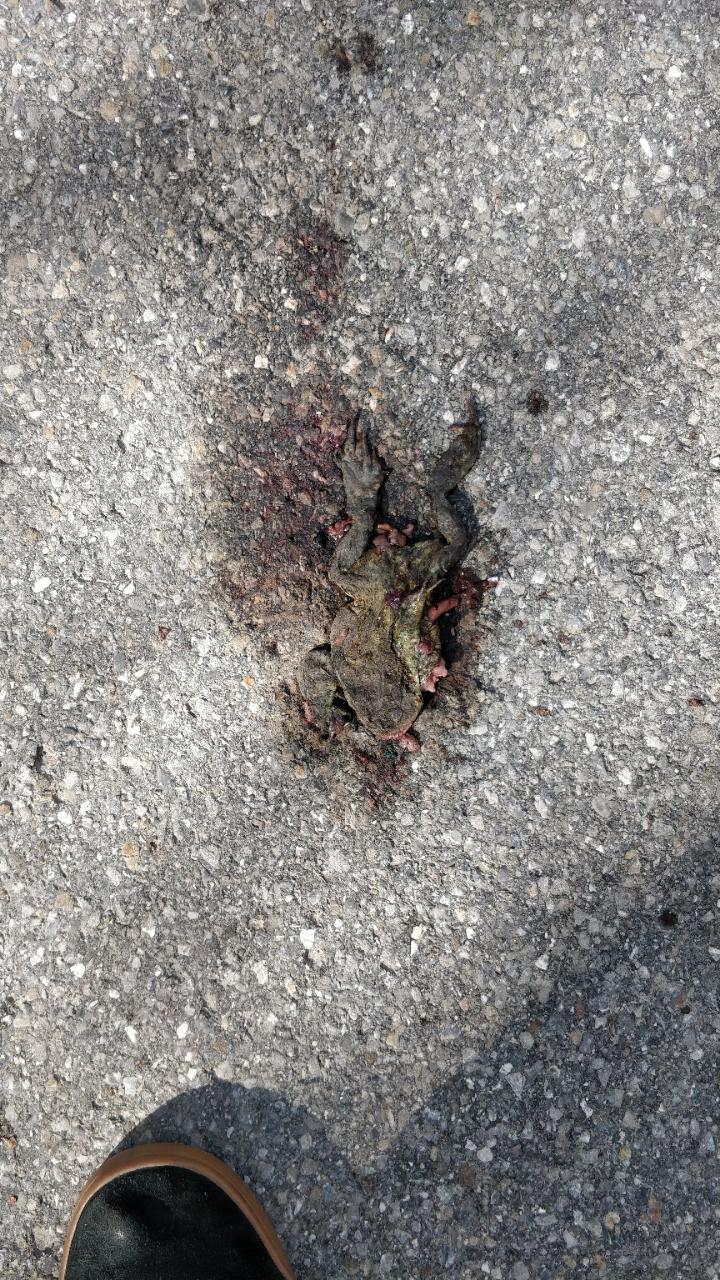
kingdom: Animalia
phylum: Chordata
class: Amphibia
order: Anura
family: Bufonidae
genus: Bufo
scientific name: Bufo bufo
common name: Common toad
